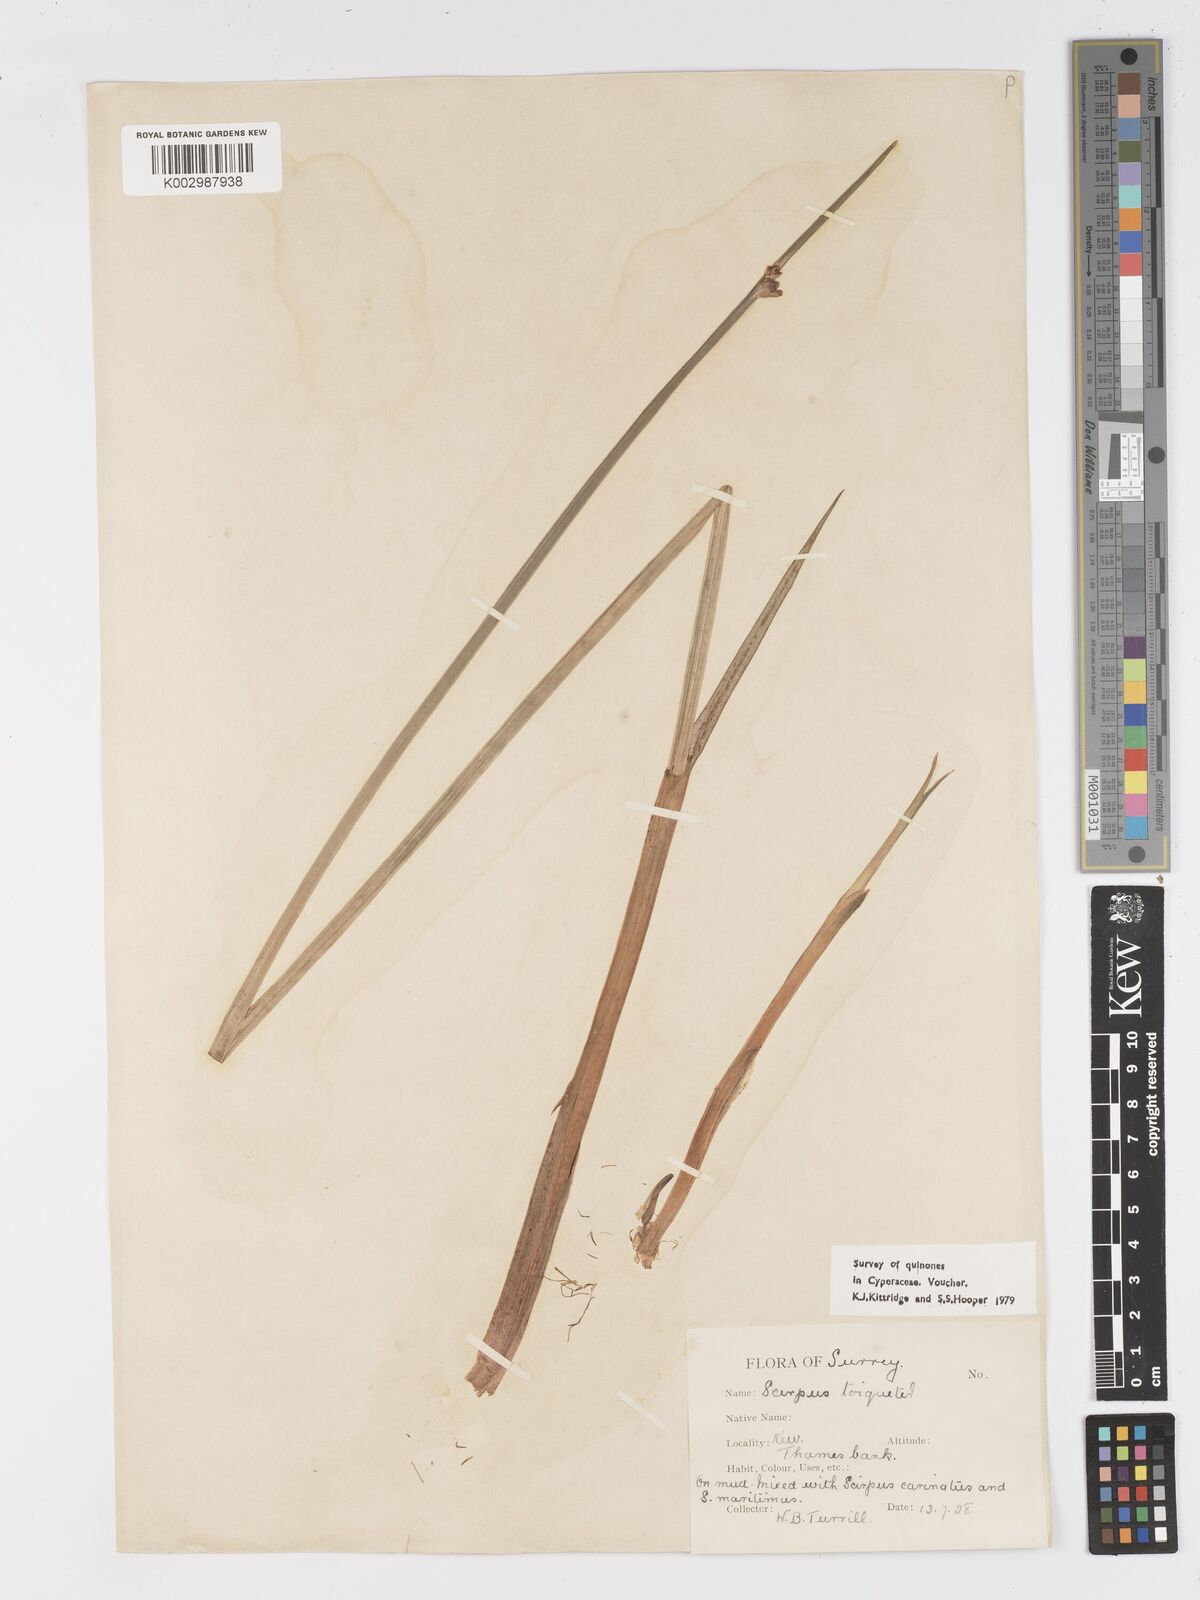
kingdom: Plantae
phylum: Tracheophyta
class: Liliopsida
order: Poales
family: Cyperaceae
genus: Schoenoplectus
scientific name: Schoenoplectus triqueter
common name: Triangular club-rush
